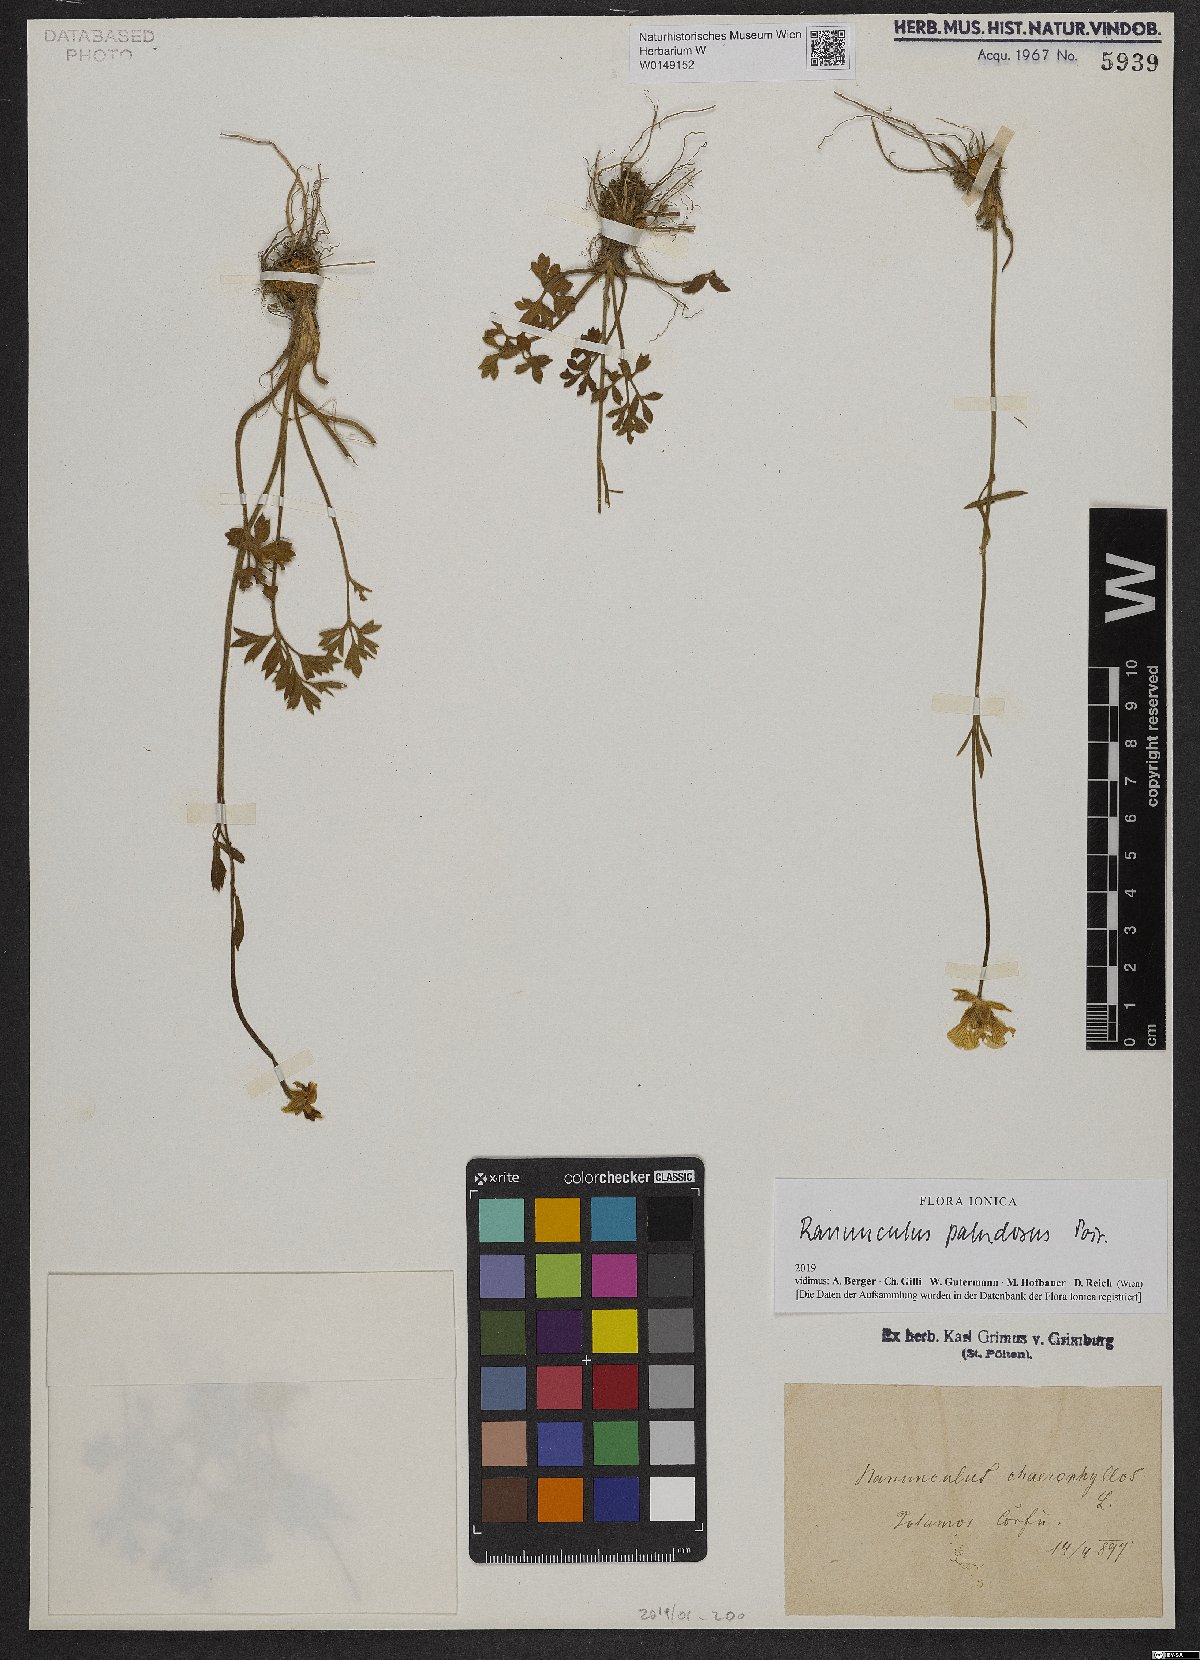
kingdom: Plantae
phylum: Tracheophyta
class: Magnoliopsida
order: Ranunculales
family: Ranunculaceae
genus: Ranunculus
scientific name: Ranunculus paludosus
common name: Jersey buttercup
